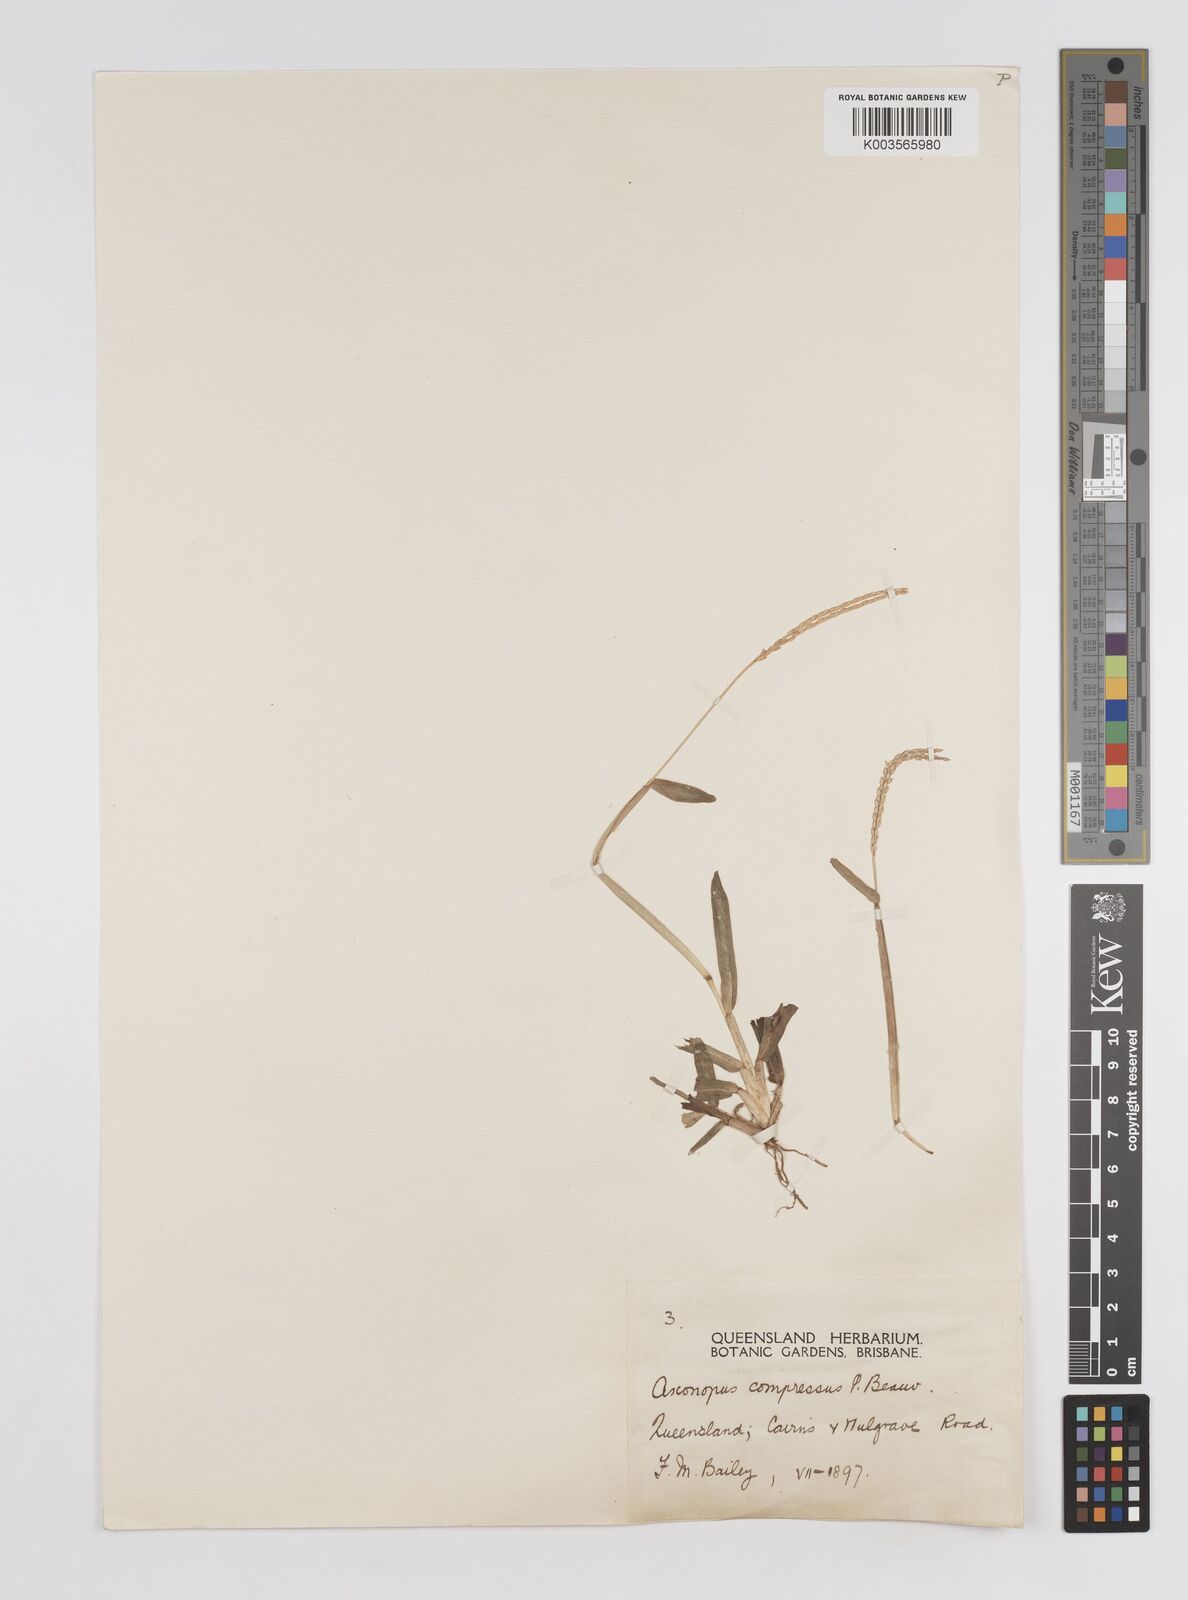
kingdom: Plantae
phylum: Tracheophyta
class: Liliopsida
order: Poales
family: Poaceae
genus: Axonopus
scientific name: Axonopus compressus
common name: American carpet grass
